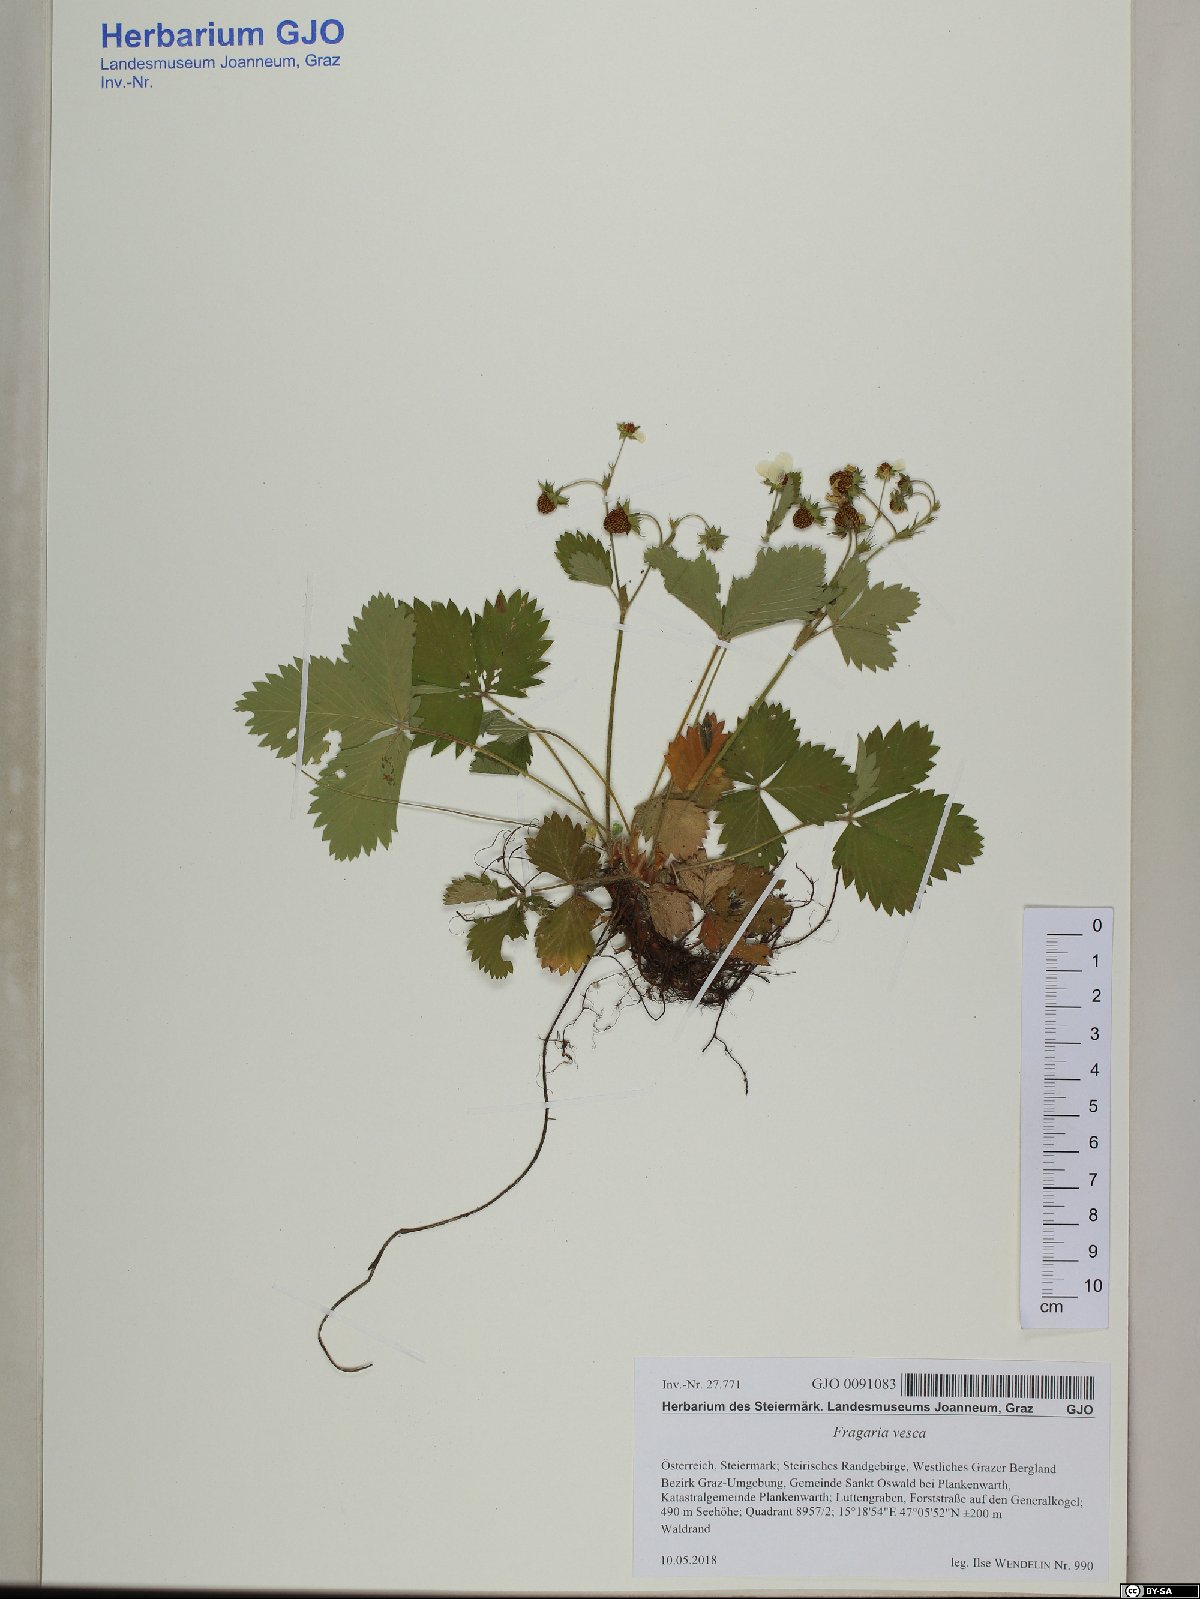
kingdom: Plantae
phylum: Tracheophyta
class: Magnoliopsida
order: Caryophyllales
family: Caryophyllaceae
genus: Cerastium
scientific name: Cerastium holosteoides
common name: Big chickweed
